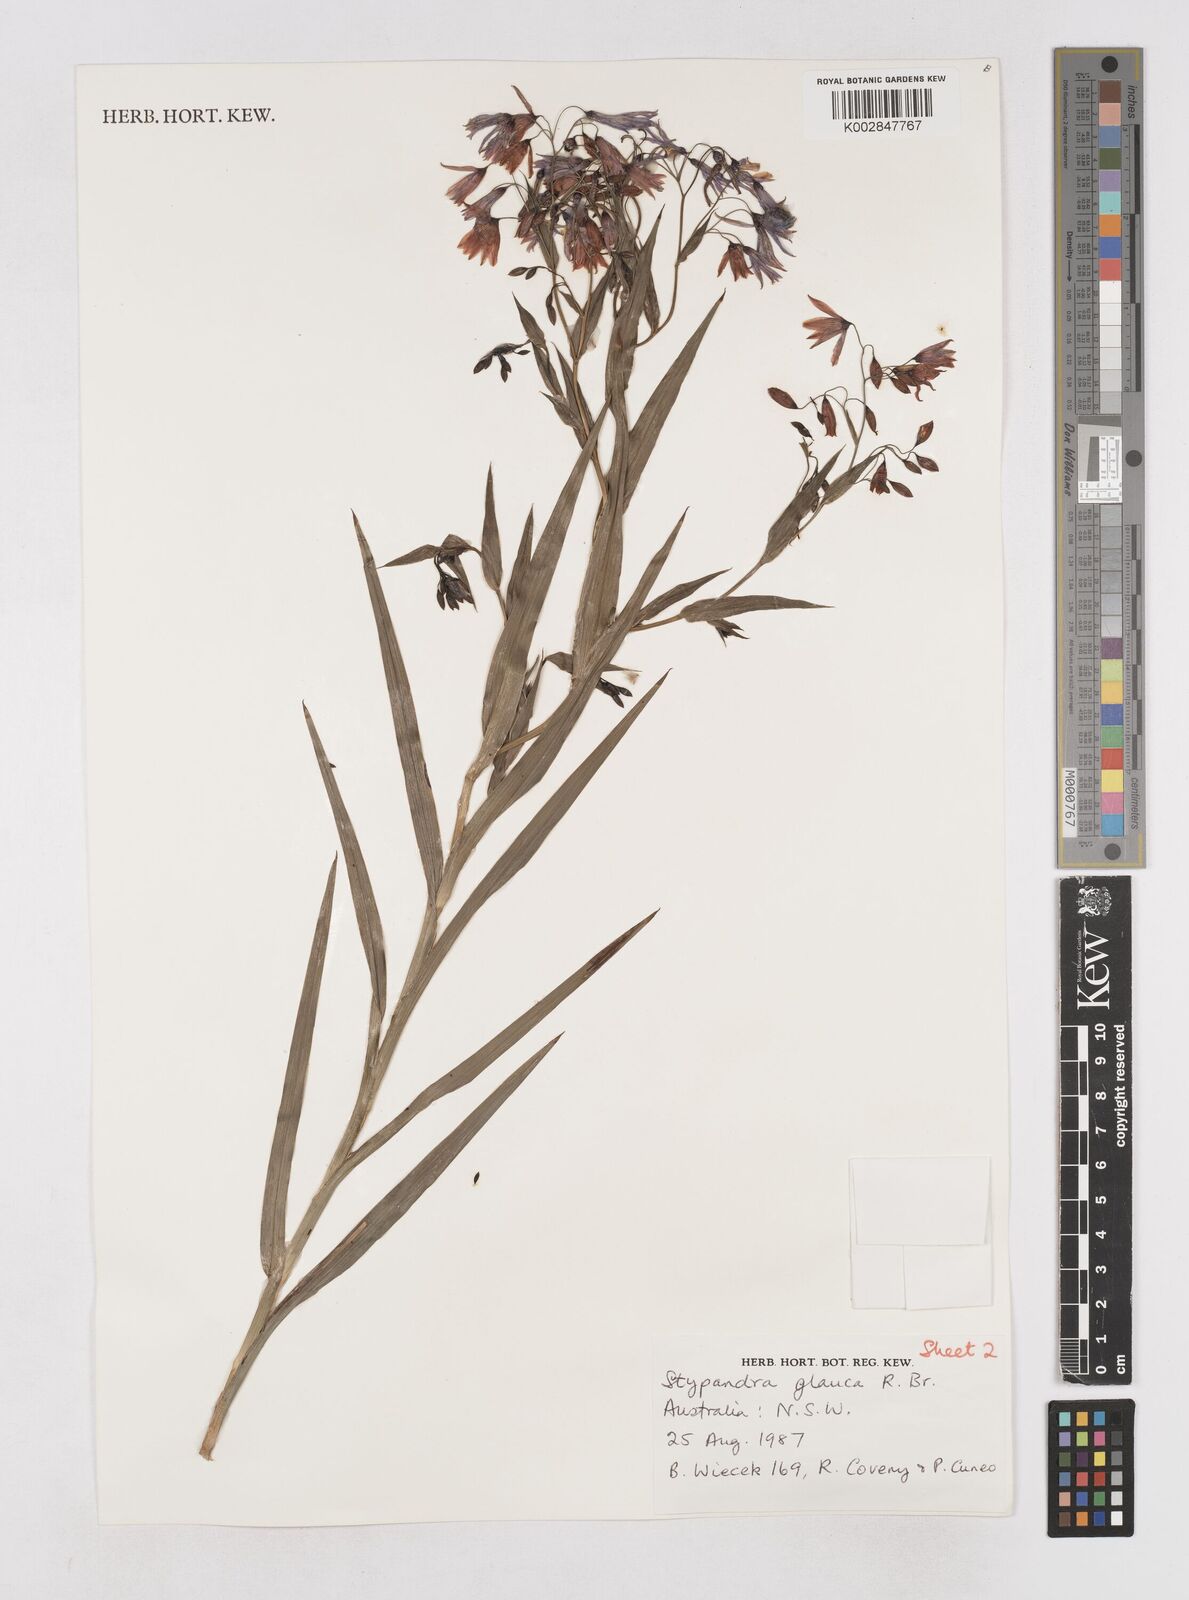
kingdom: Plantae
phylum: Tracheophyta
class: Liliopsida
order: Asparagales
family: Asphodelaceae
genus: Stypandra
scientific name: Stypandra glauca
